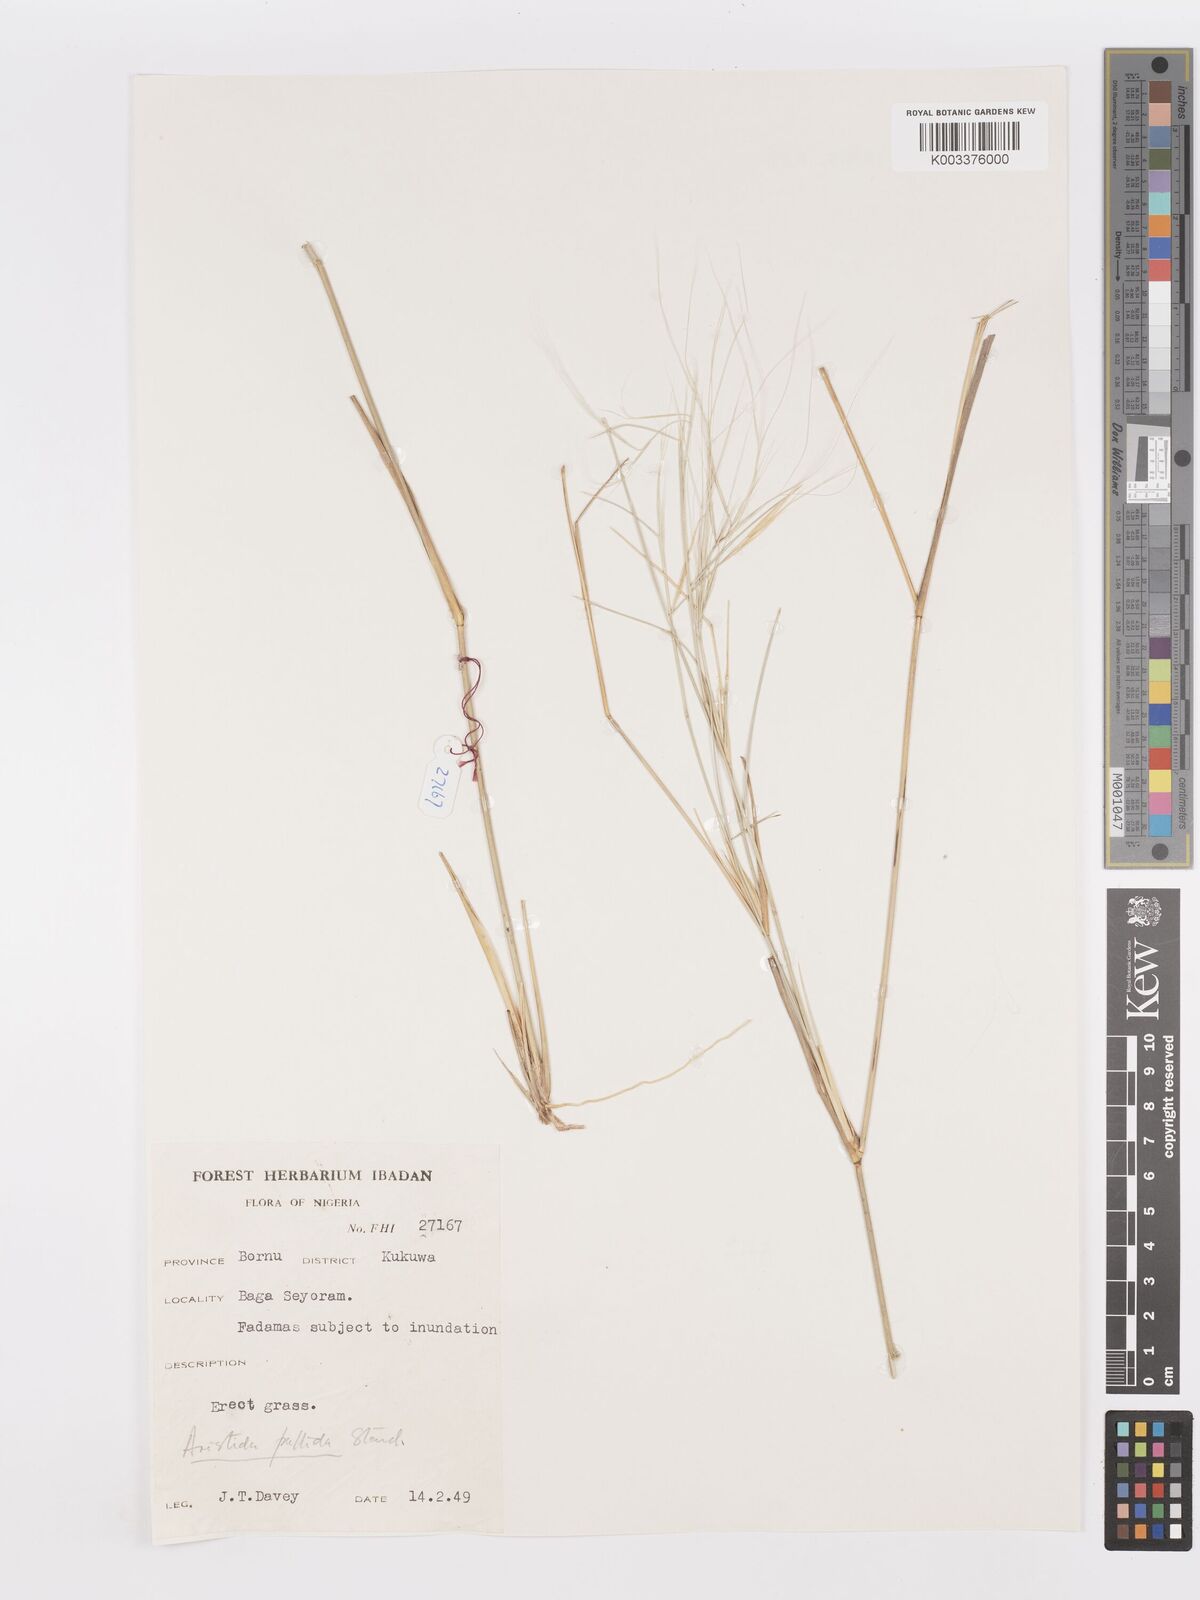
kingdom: Plantae
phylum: Tracheophyta
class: Liliopsida
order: Poales
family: Poaceae
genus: Aristida
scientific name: Aristida sieberiana
